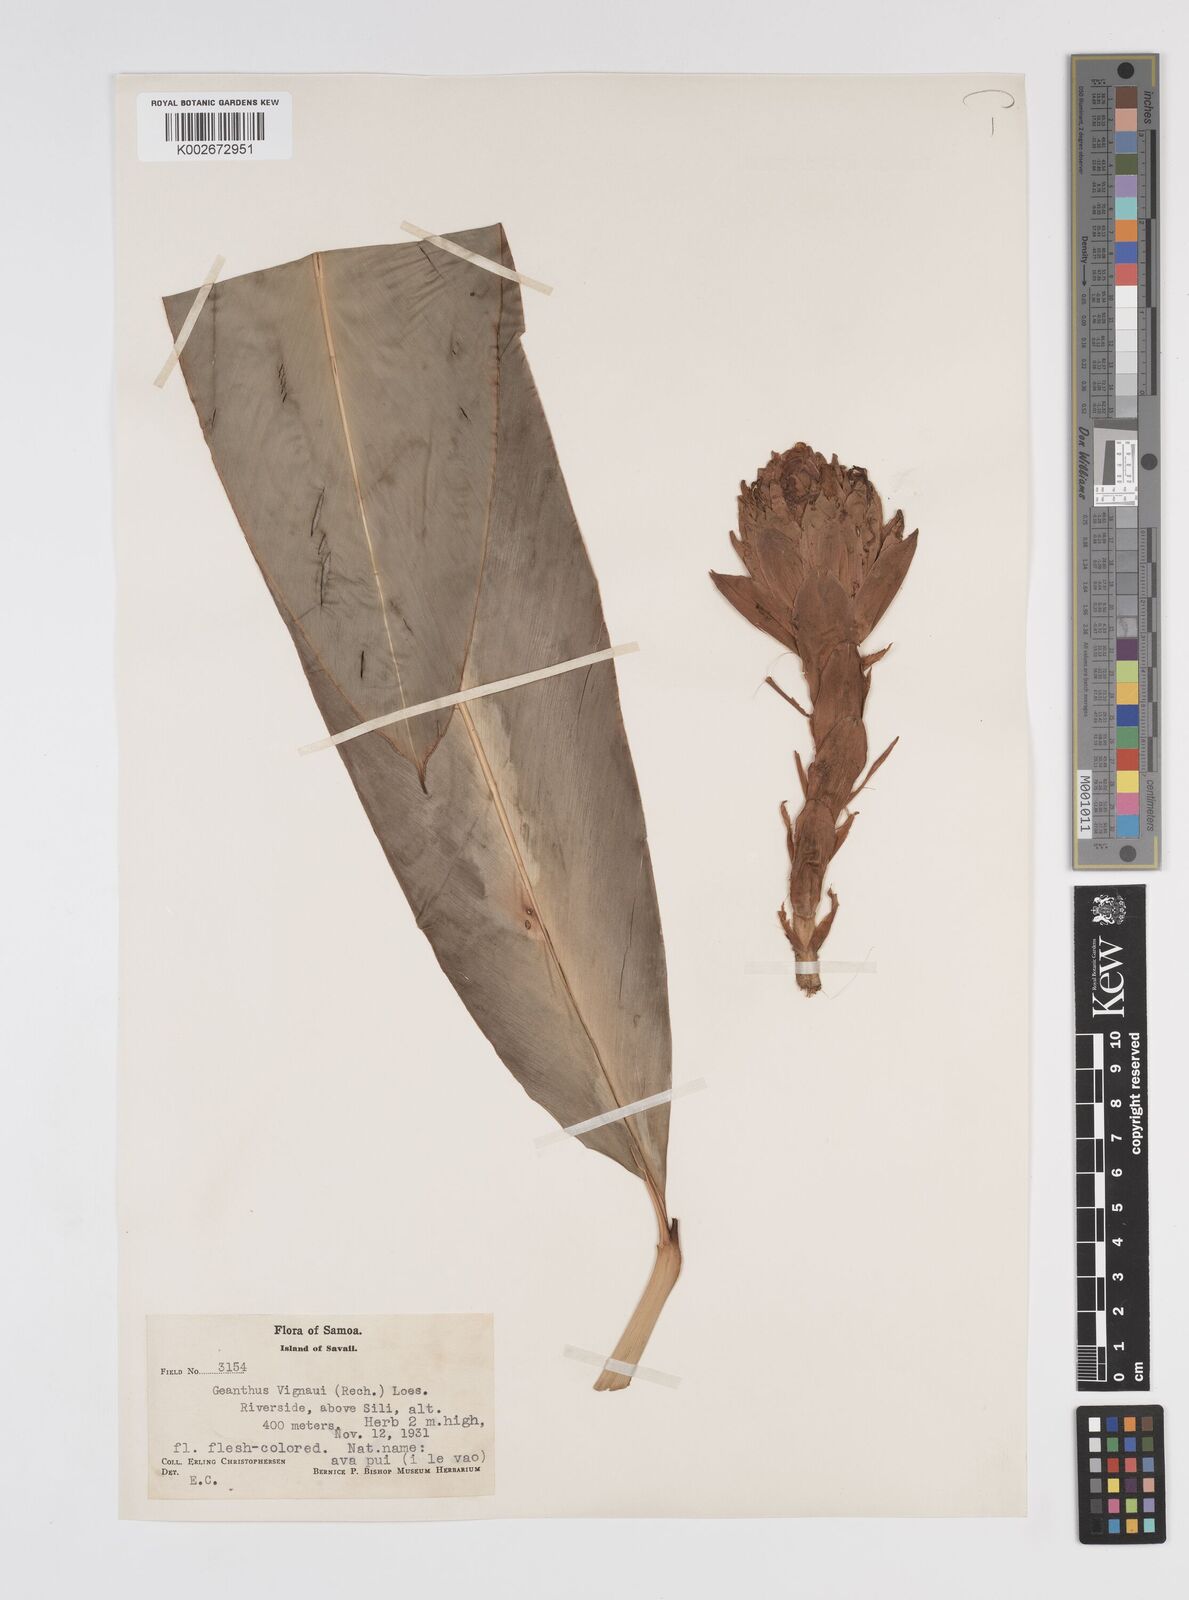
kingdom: Plantae
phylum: Tracheophyta
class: Liliopsida
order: Zingiberales
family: Zingiberaceae
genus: Etlingera
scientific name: Etlingera cevuga
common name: Waxflower
